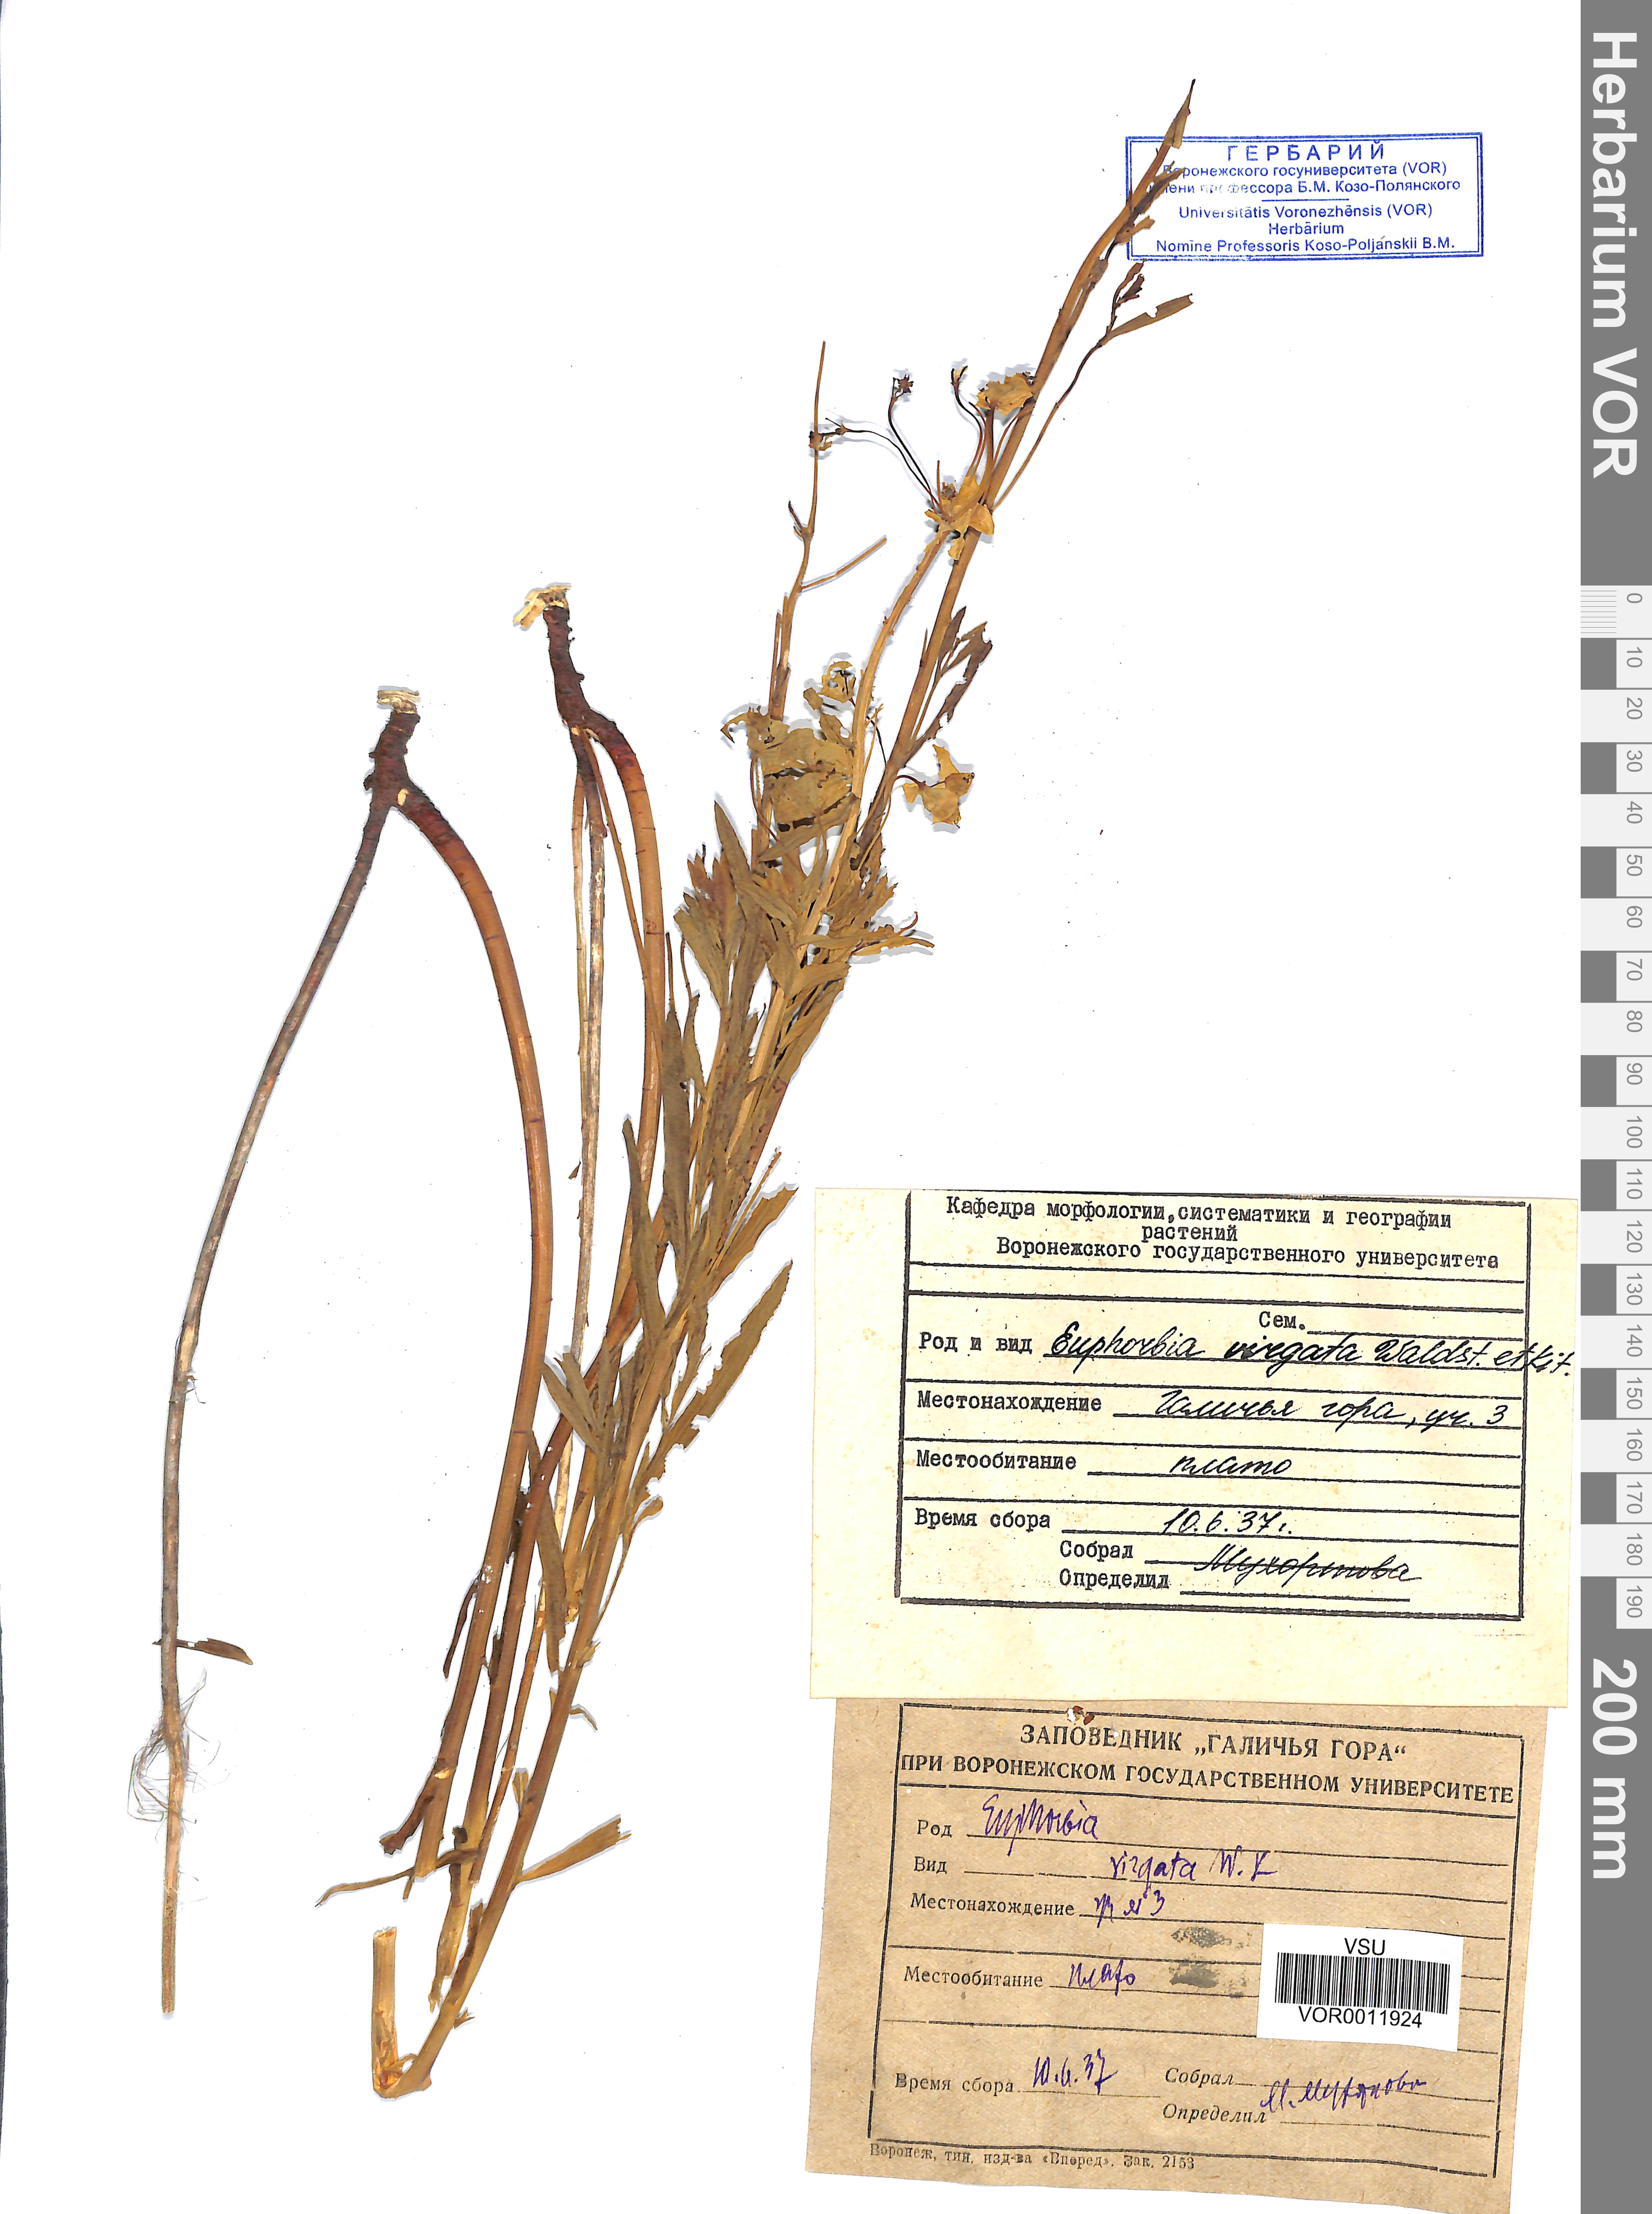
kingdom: Plantae
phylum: Tracheophyta
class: Magnoliopsida
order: Malpighiales
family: Euphorbiaceae
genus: Euphorbia
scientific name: Euphorbia virgata
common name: Leafy spurge
